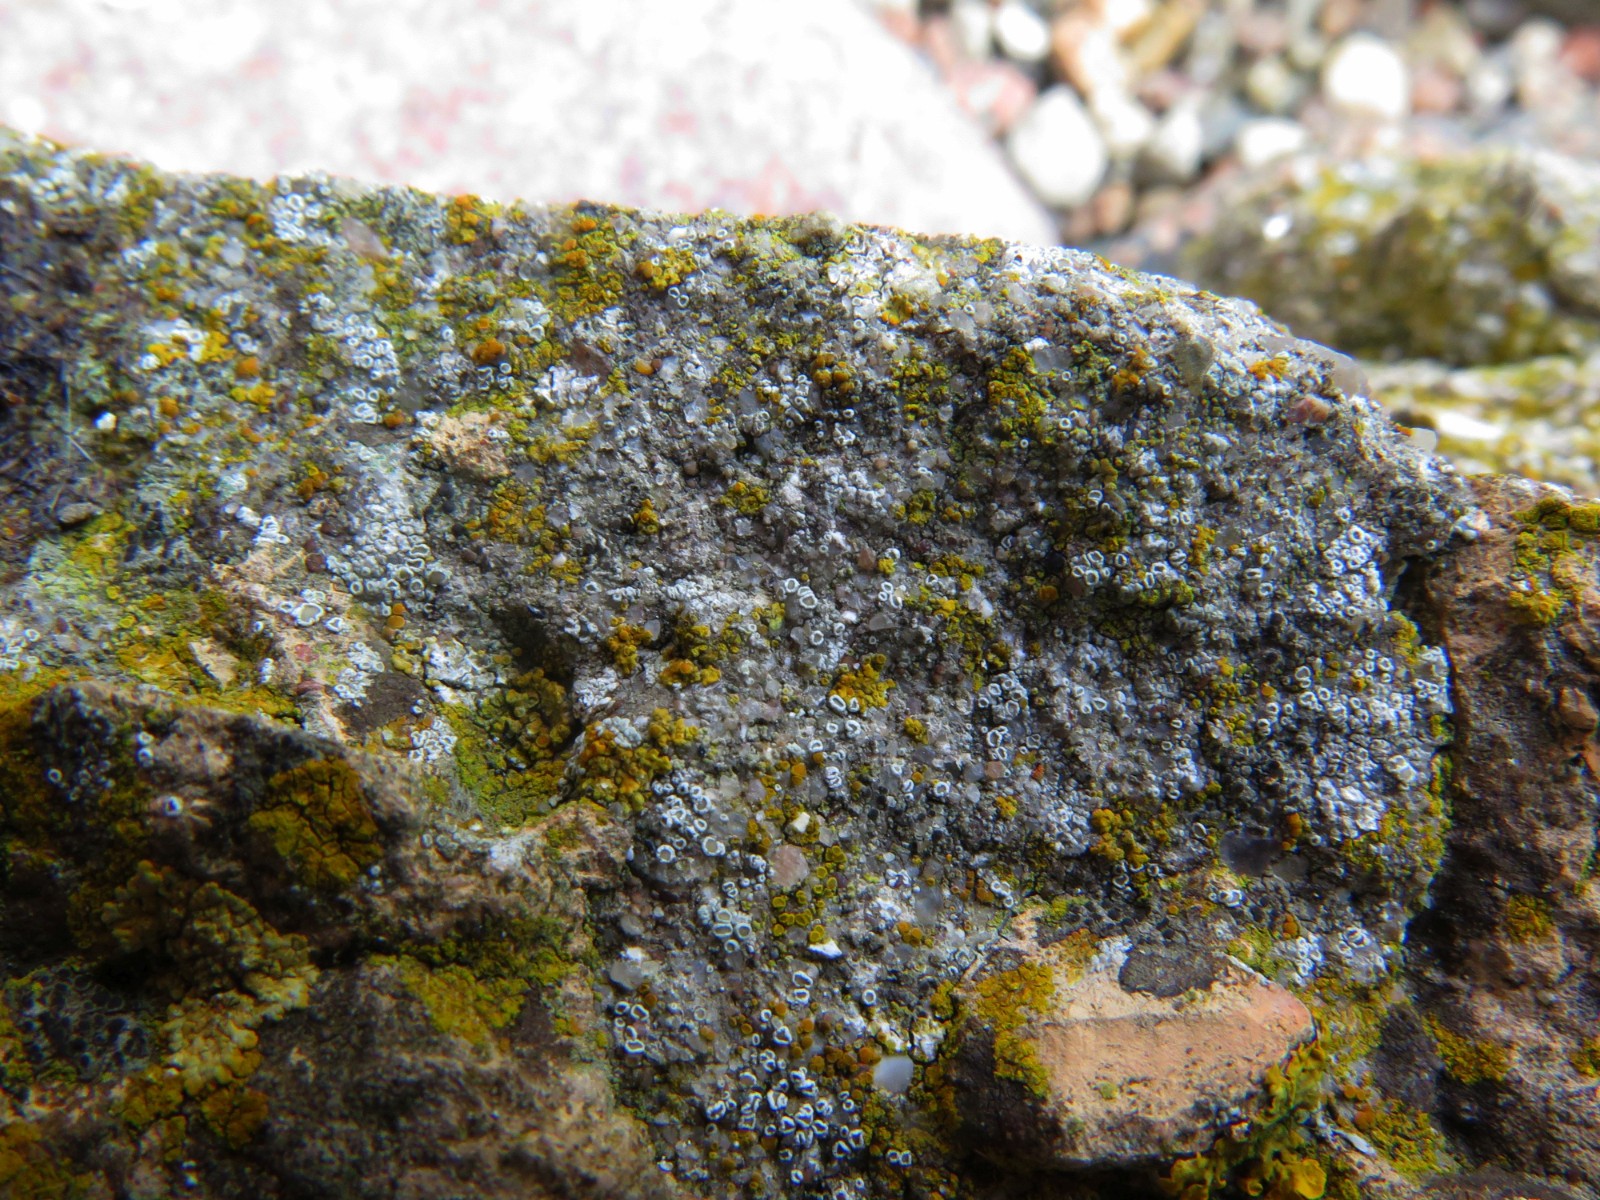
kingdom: Fungi
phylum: Ascomycota
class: Lecanoromycetes
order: Lecanorales
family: Lecanoraceae
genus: Polyozosia
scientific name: Polyozosia dispersa
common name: spredt kantskivelav
